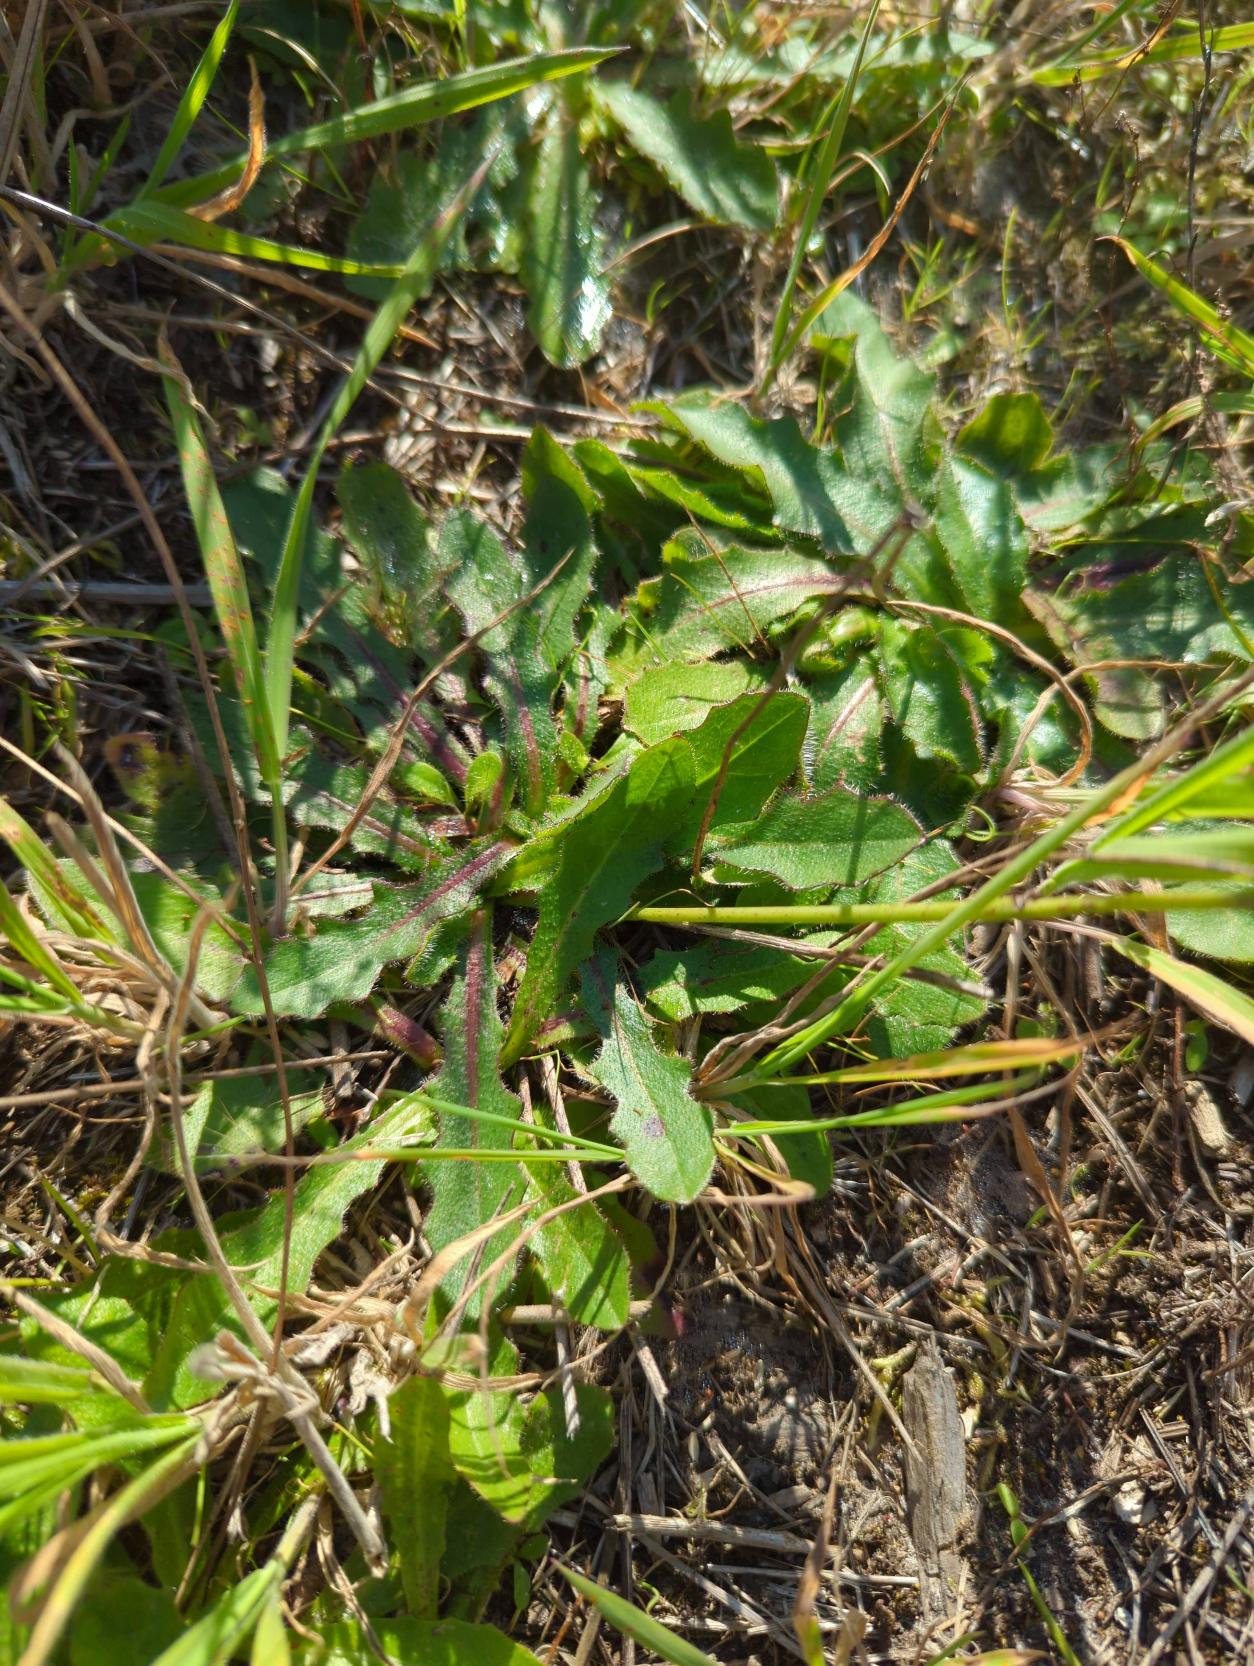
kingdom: Plantae
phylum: Tracheophyta
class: Magnoliopsida
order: Asterales
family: Asteraceae
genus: Hypochaeris
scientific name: Hypochaeris radicata
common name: Almindelig kongepen
